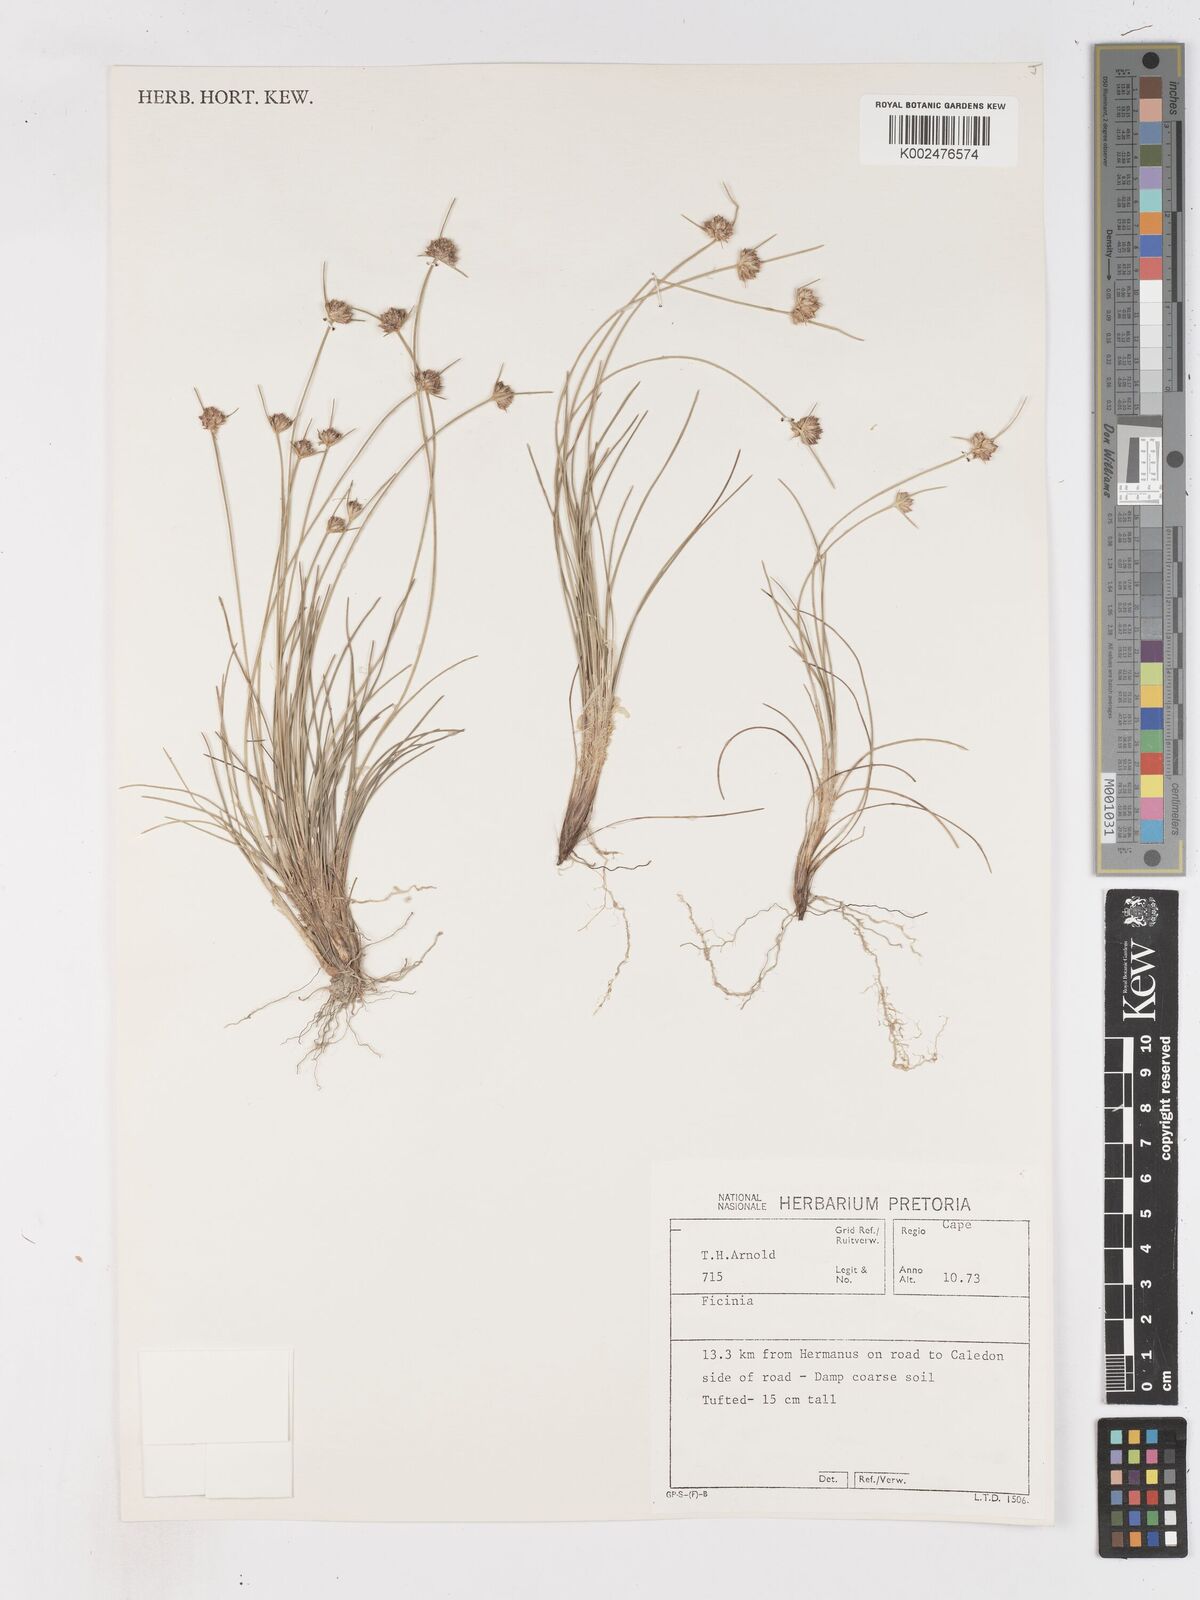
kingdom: Plantae
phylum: Tracheophyta
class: Liliopsida
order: Poales
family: Cyperaceae
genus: Ficinia
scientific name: Ficinia
